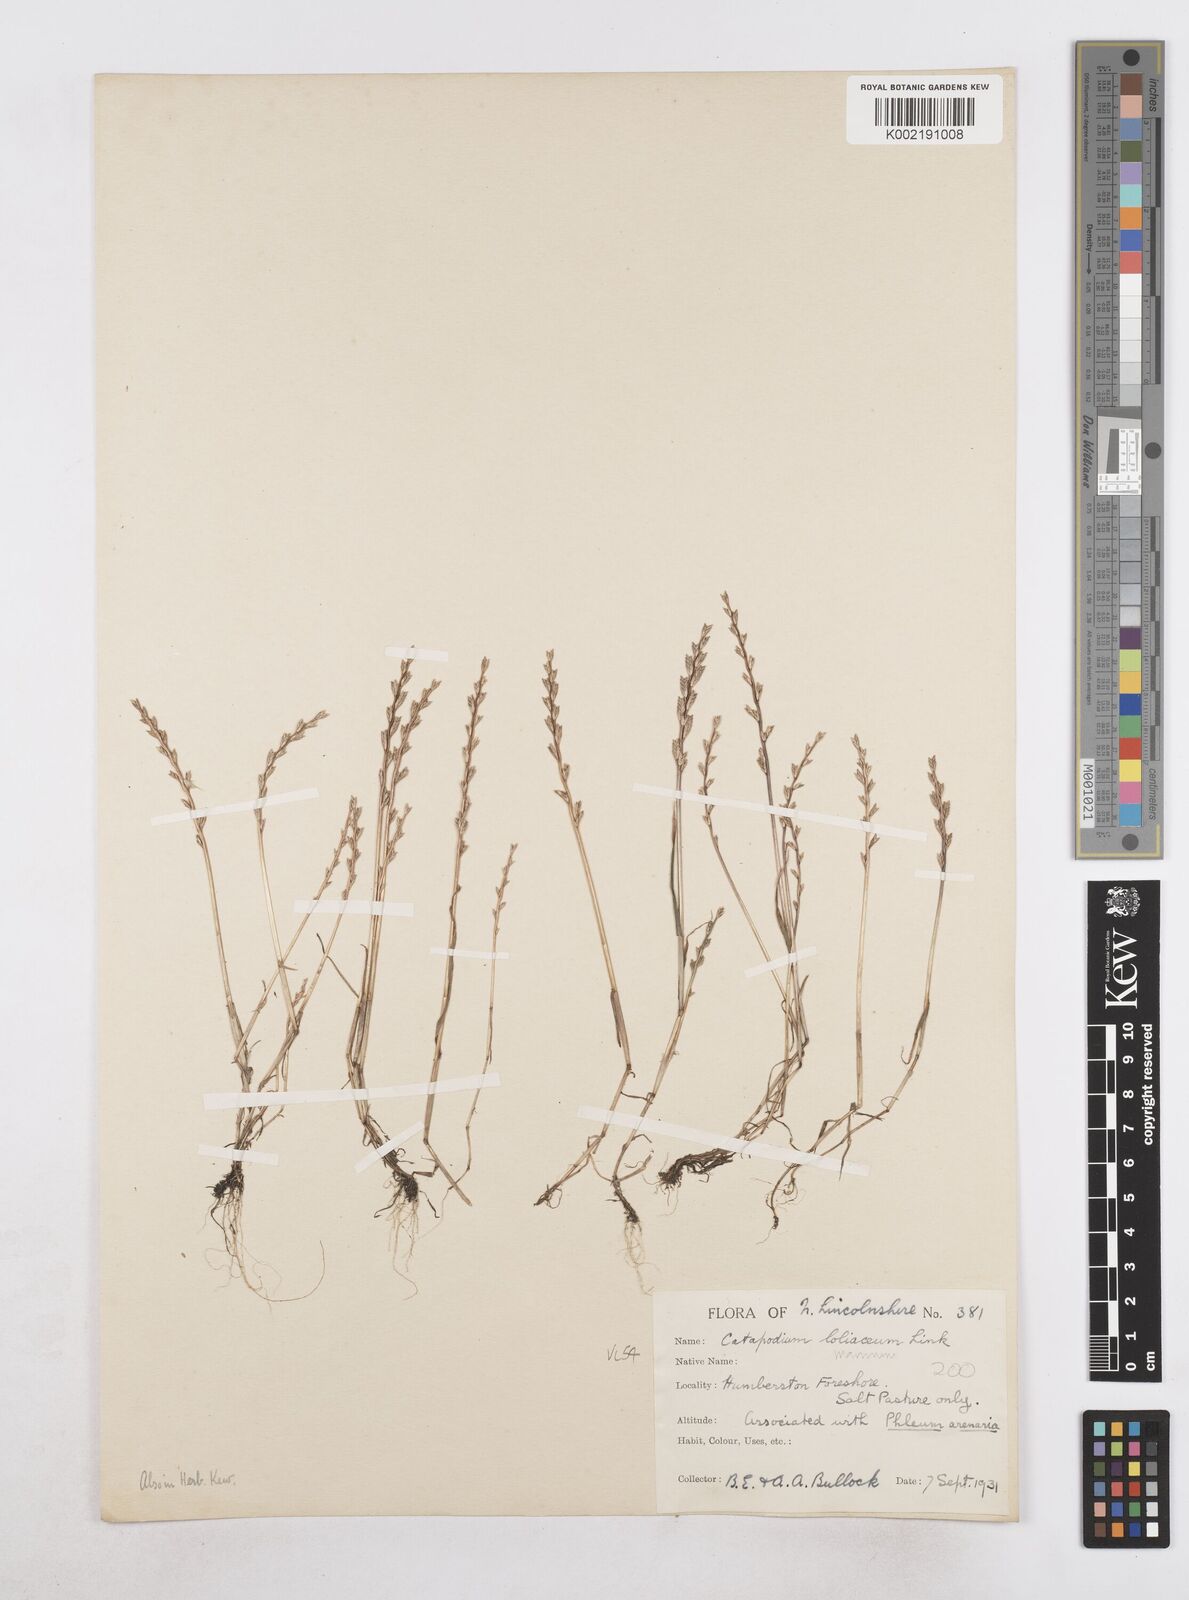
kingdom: Plantae
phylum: Tracheophyta
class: Liliopsida
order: Poales
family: Poaceae
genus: Catapodium
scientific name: Catapodium marinum
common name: Sea fern-grass
